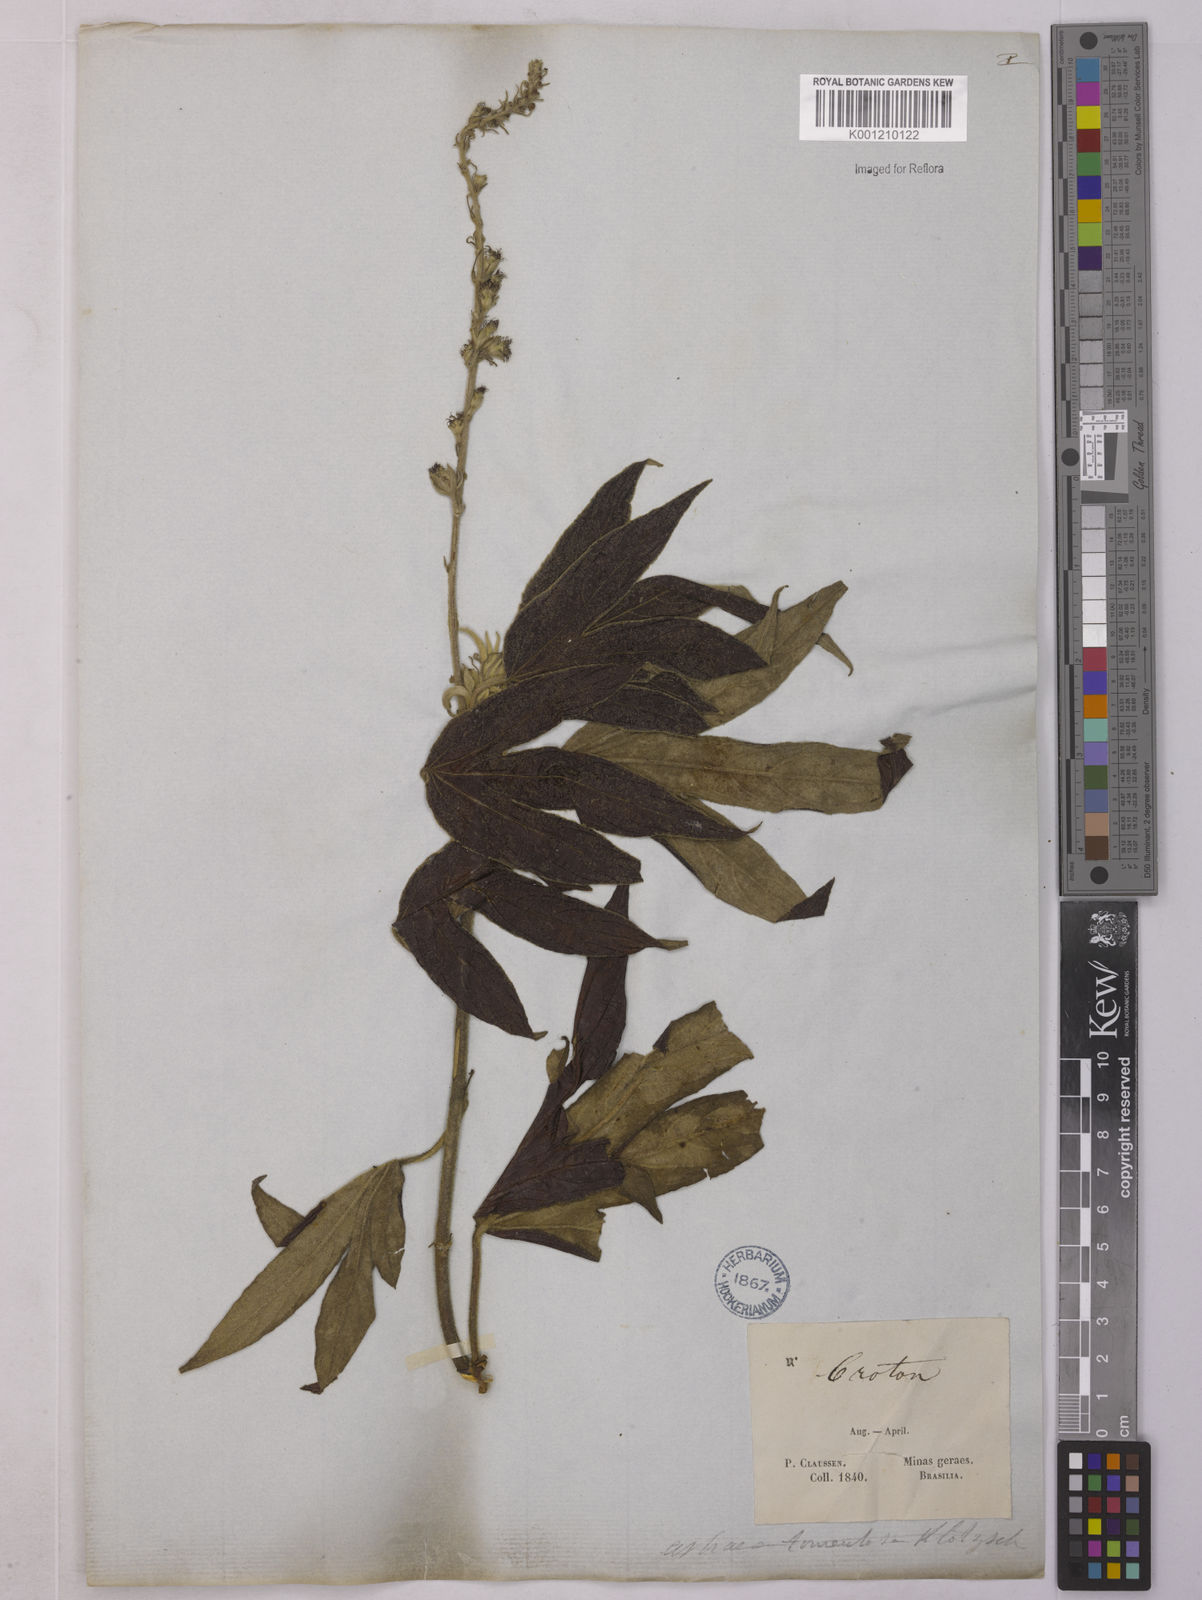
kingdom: Plantae
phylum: Tracheophyta
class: Magnoliopsida
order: Malpighiales
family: Euphorbiaceae
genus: Astraea
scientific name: Astraea
